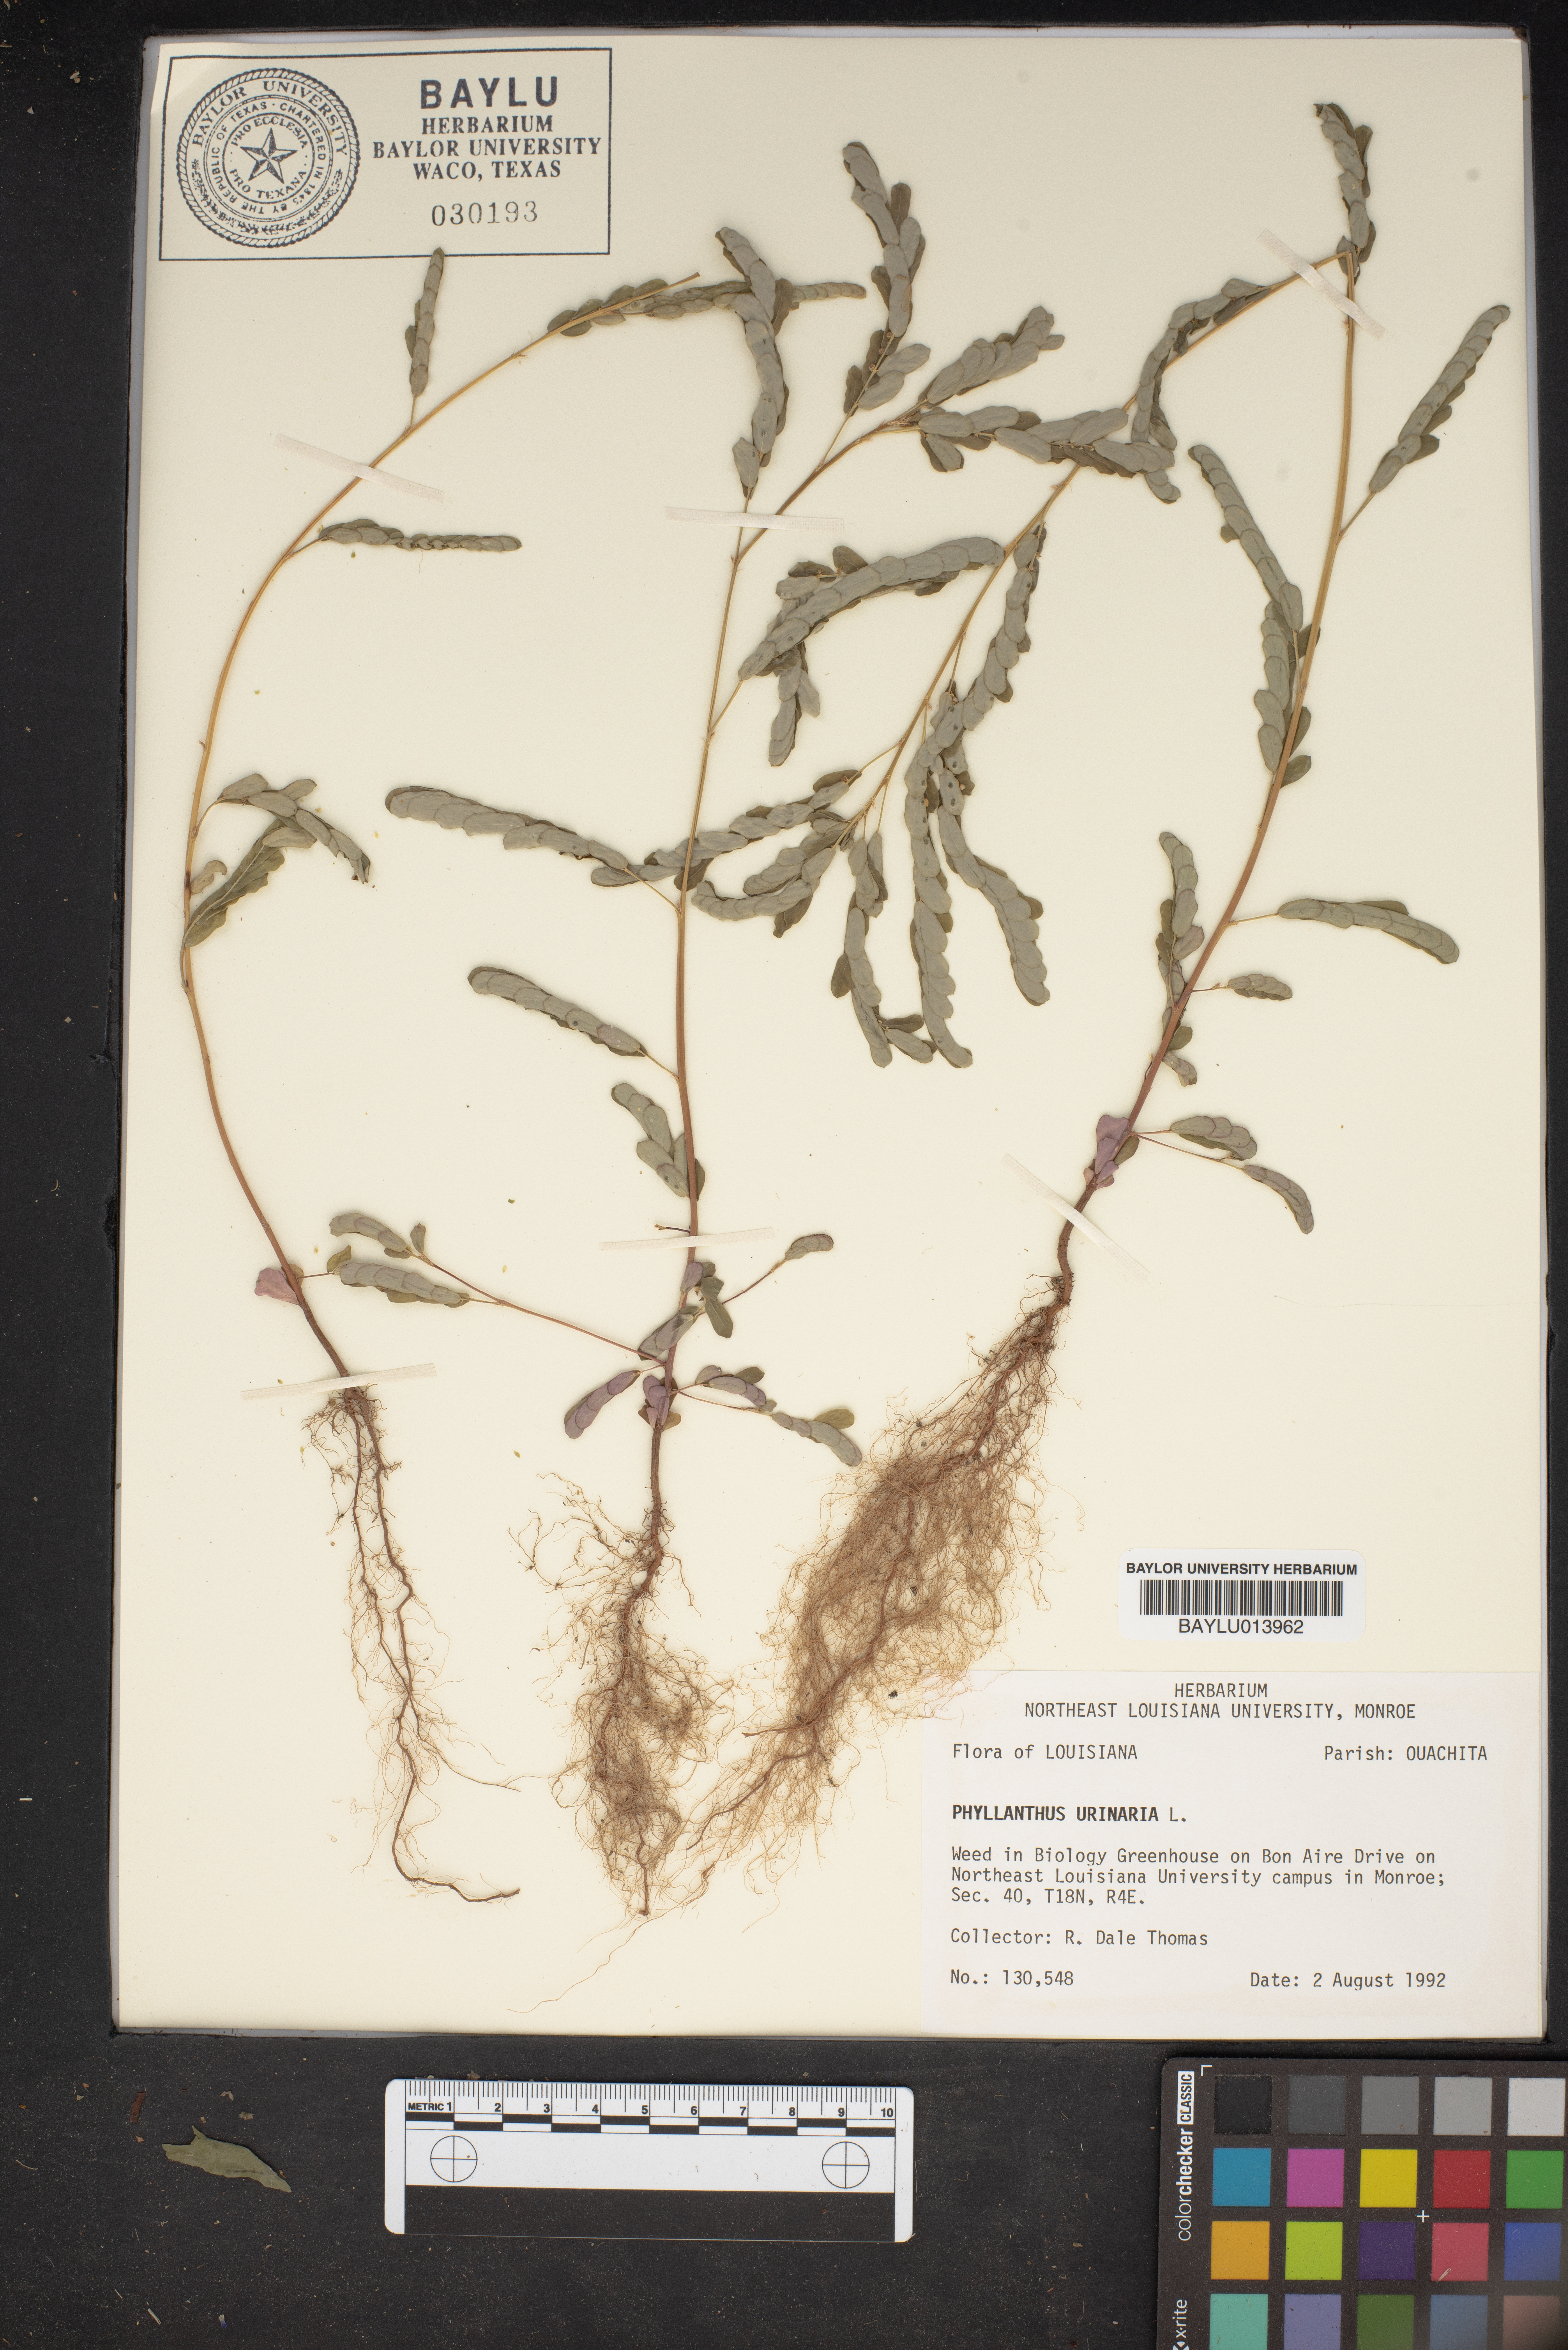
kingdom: Plantae
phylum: Tracheophyta
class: Magnoliopsida
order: Malpighiales
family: Phyllanthaceae
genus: Phyllanthus
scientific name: Phyllanthus urinaria
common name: Chamber bitter
